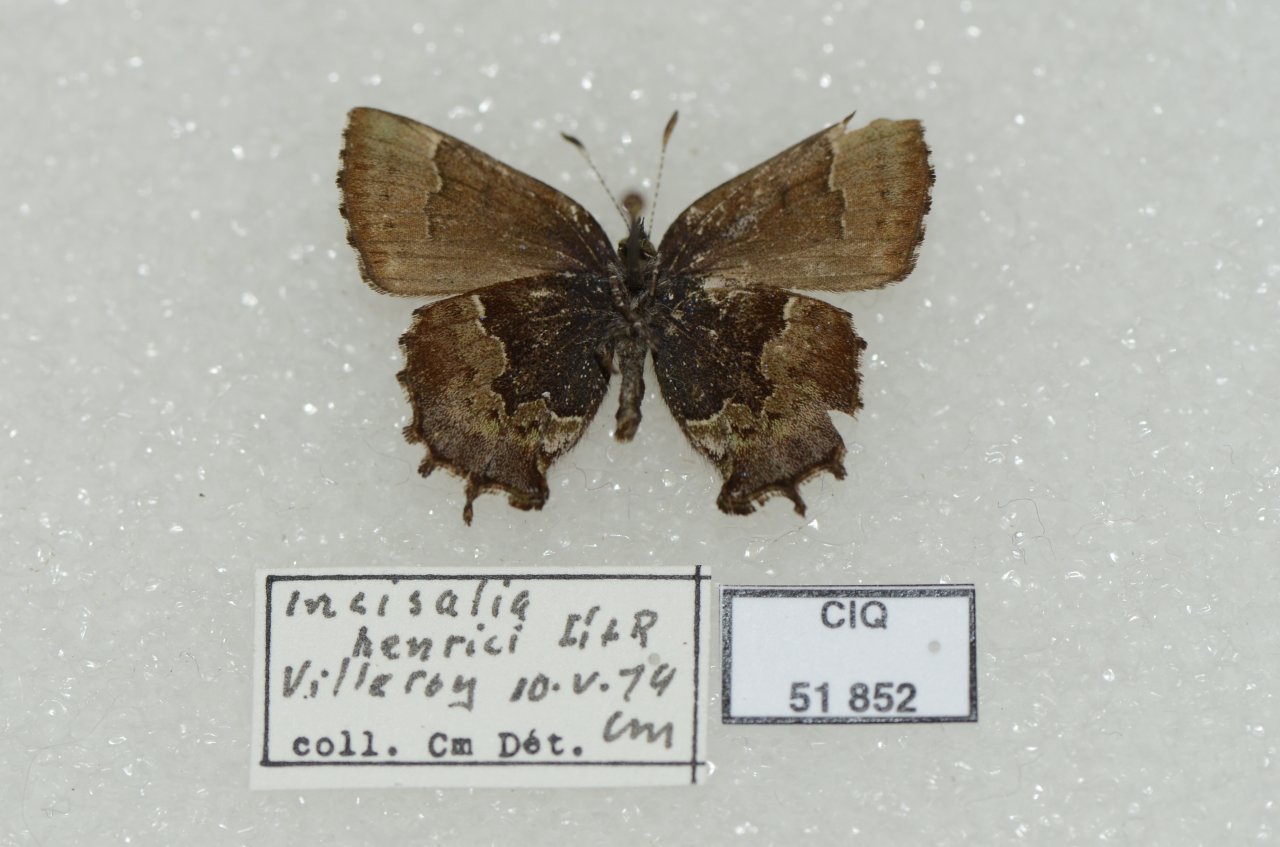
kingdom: Animalia
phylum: Arthropoda
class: Insecta
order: Lepidoptera
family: Lycaenidae
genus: Incisalia
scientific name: Incisalia henrici
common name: Henry's Elfin
